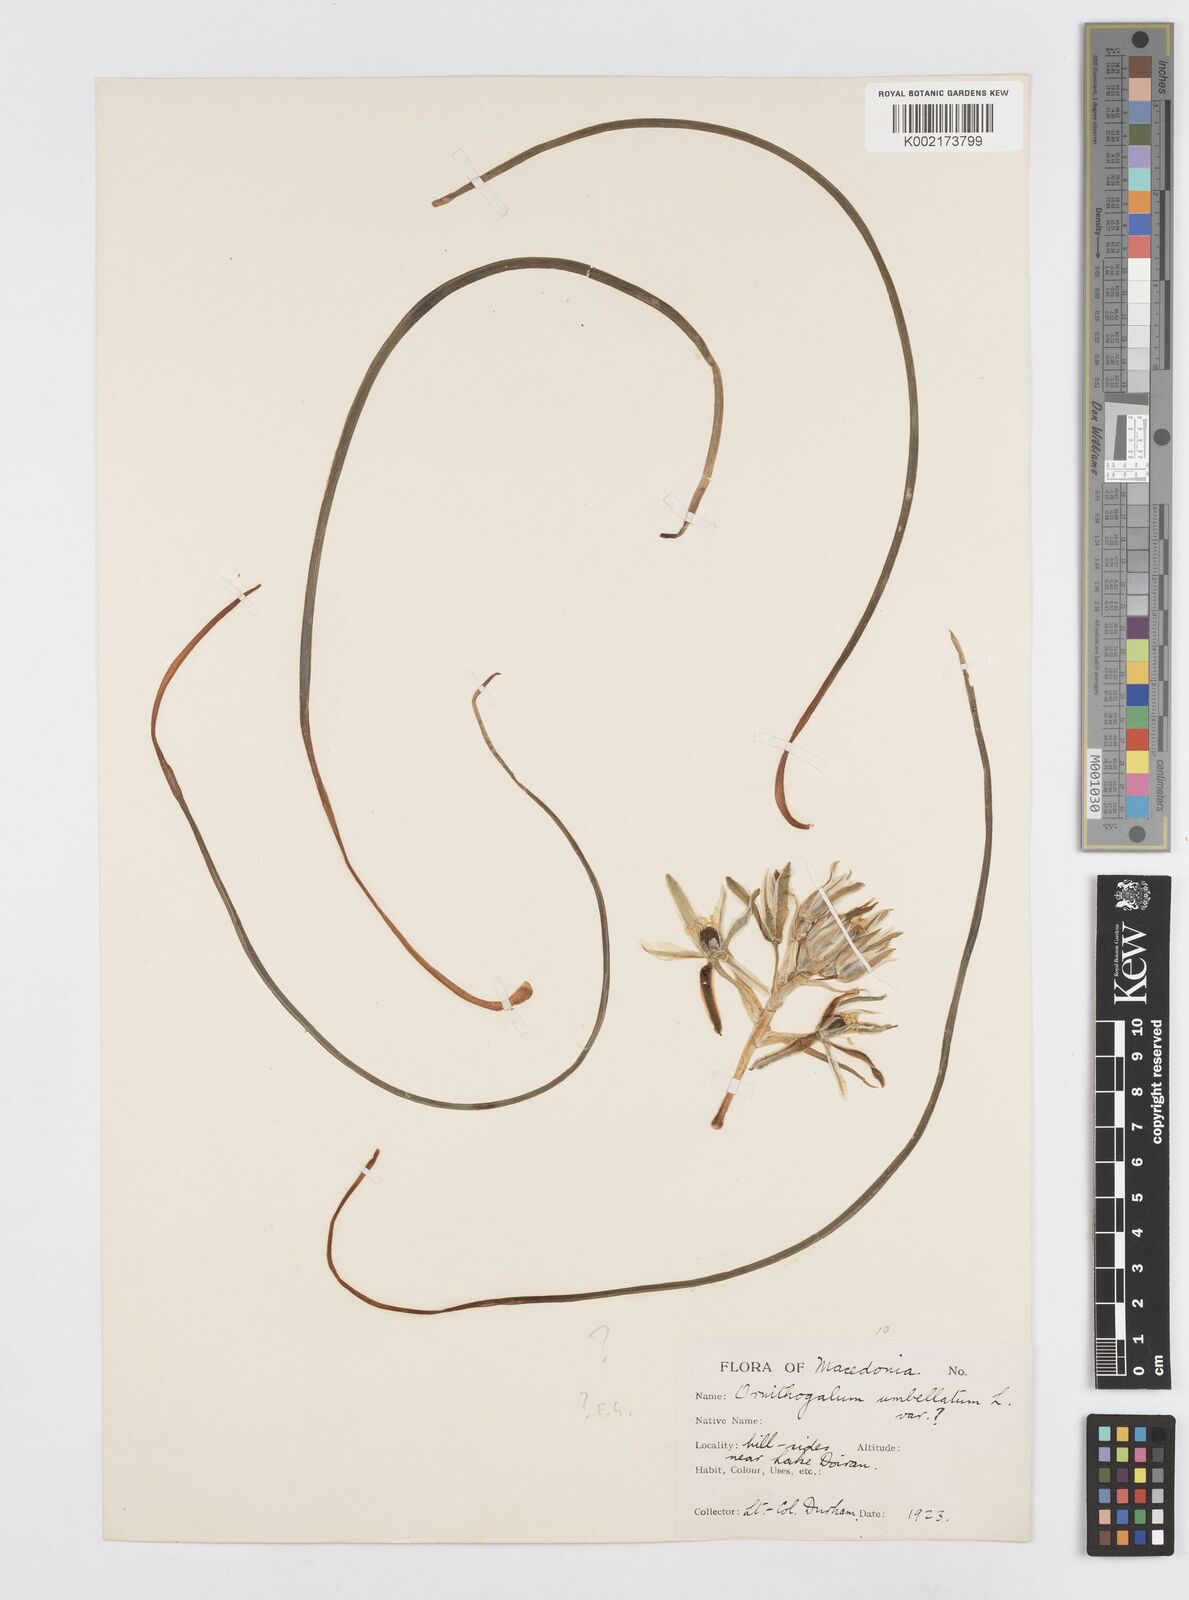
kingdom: Plantae
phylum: Tracheophyta
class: Liliopsida
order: Asparagales
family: Asparagaceae
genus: Ornithogalum
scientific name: Ornithogalum umbellatum
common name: Garden star-of-bethlehem
